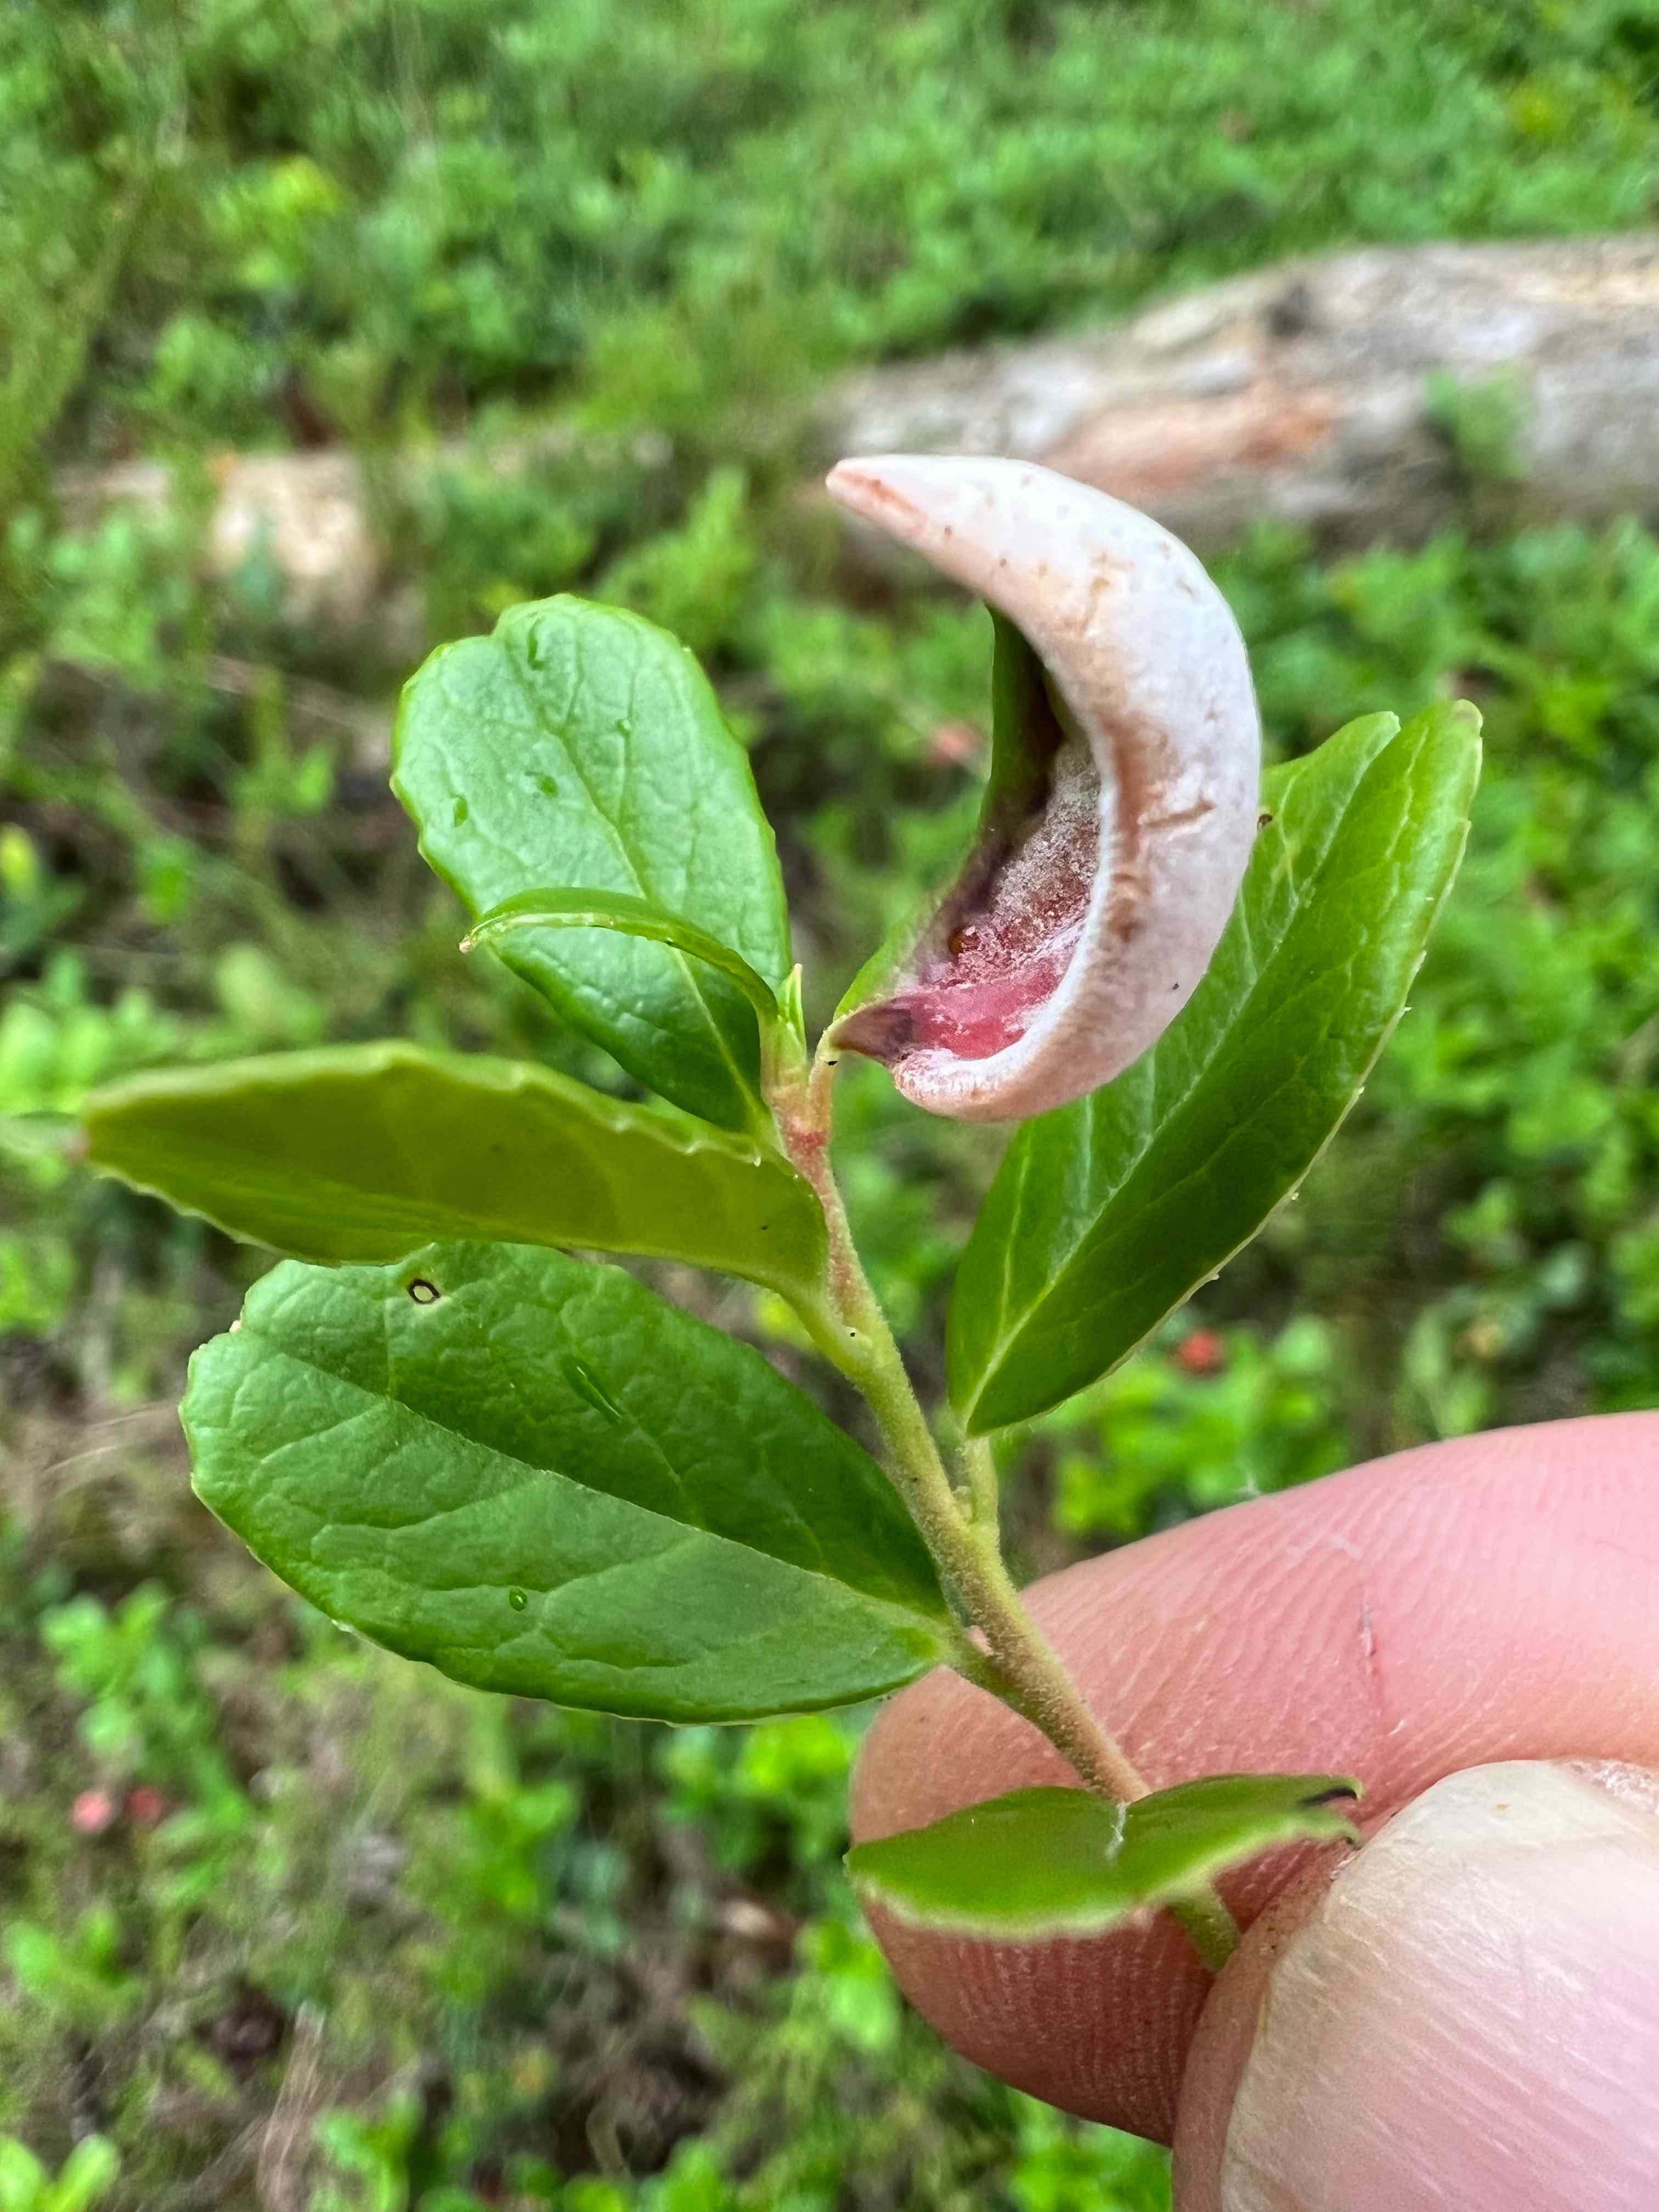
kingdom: Fungi
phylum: Basidiomycota
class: Exobasidiomycetes
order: Exobasidiales
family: Exobasidiaceae
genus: Exobasidium
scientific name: Exobasidium vaccinii
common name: tyttebærblad-bøllesvamp
